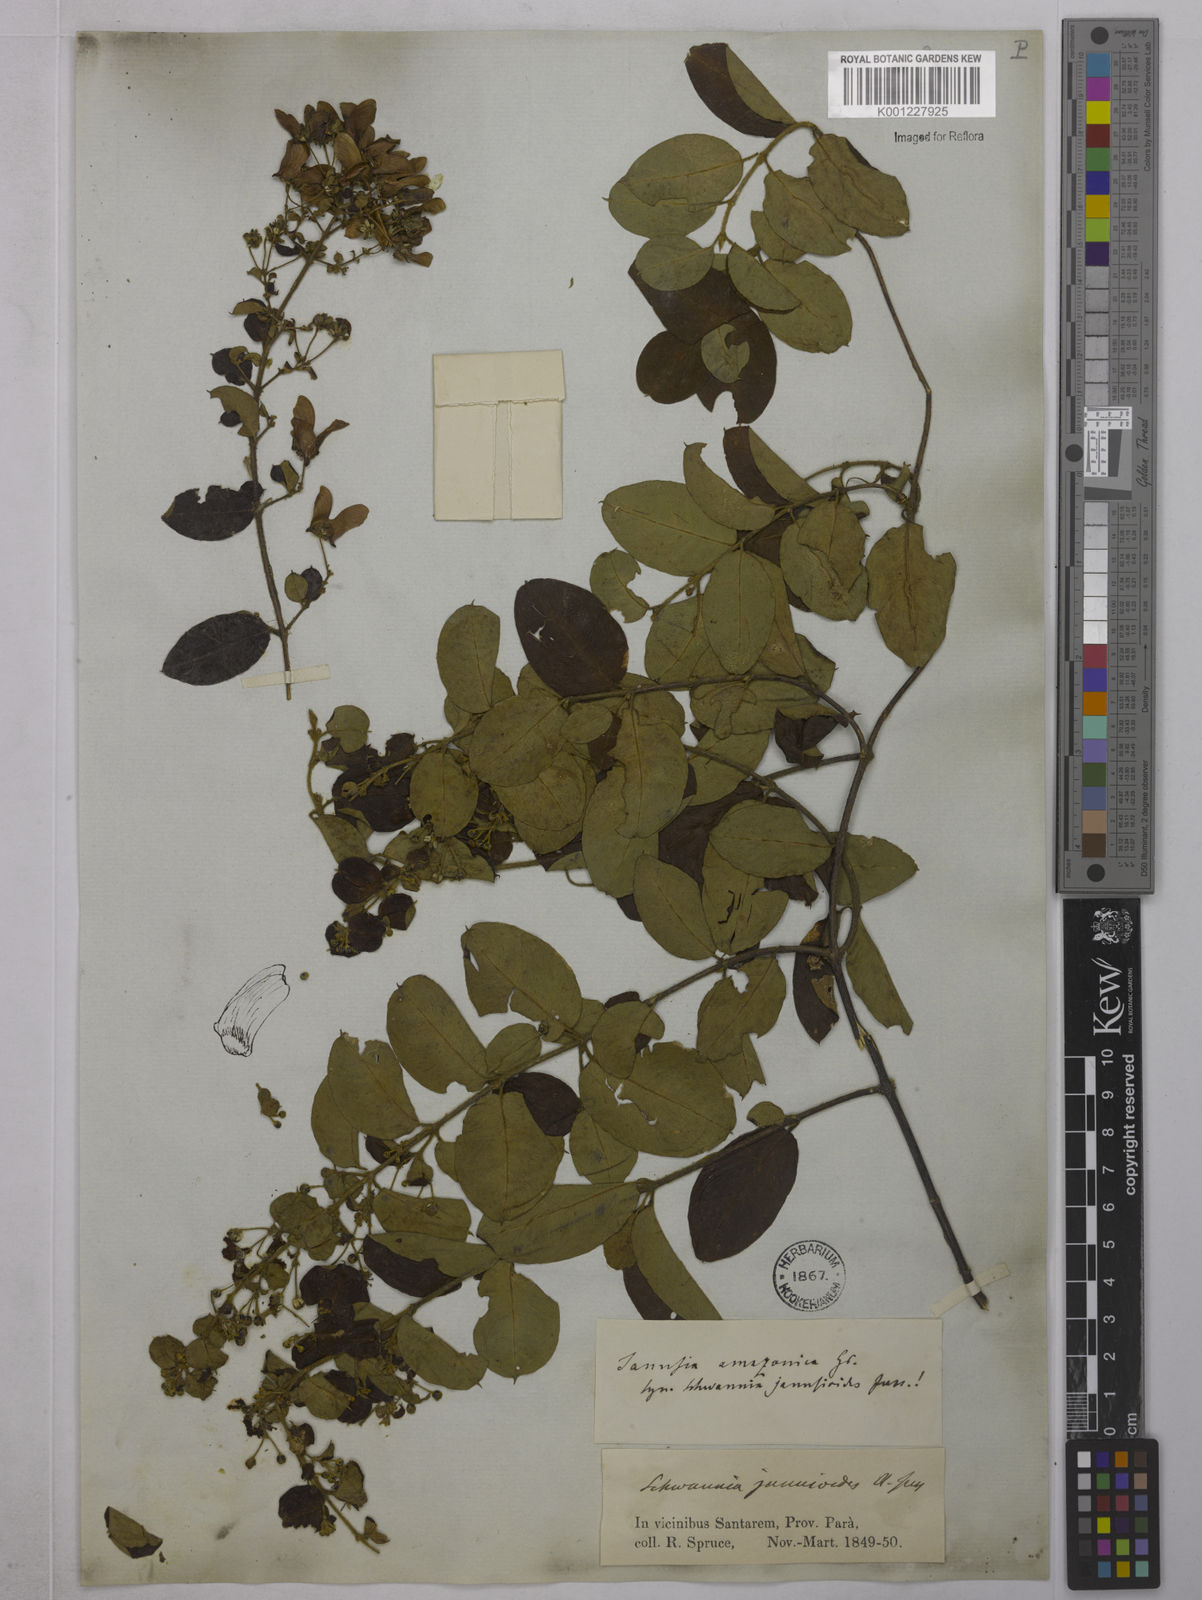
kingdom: Plantae
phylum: Tracheophyta
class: Magnoliopsida
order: Malpighiales
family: Malpighiaceae
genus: Janusia
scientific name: Janusia janusioides
